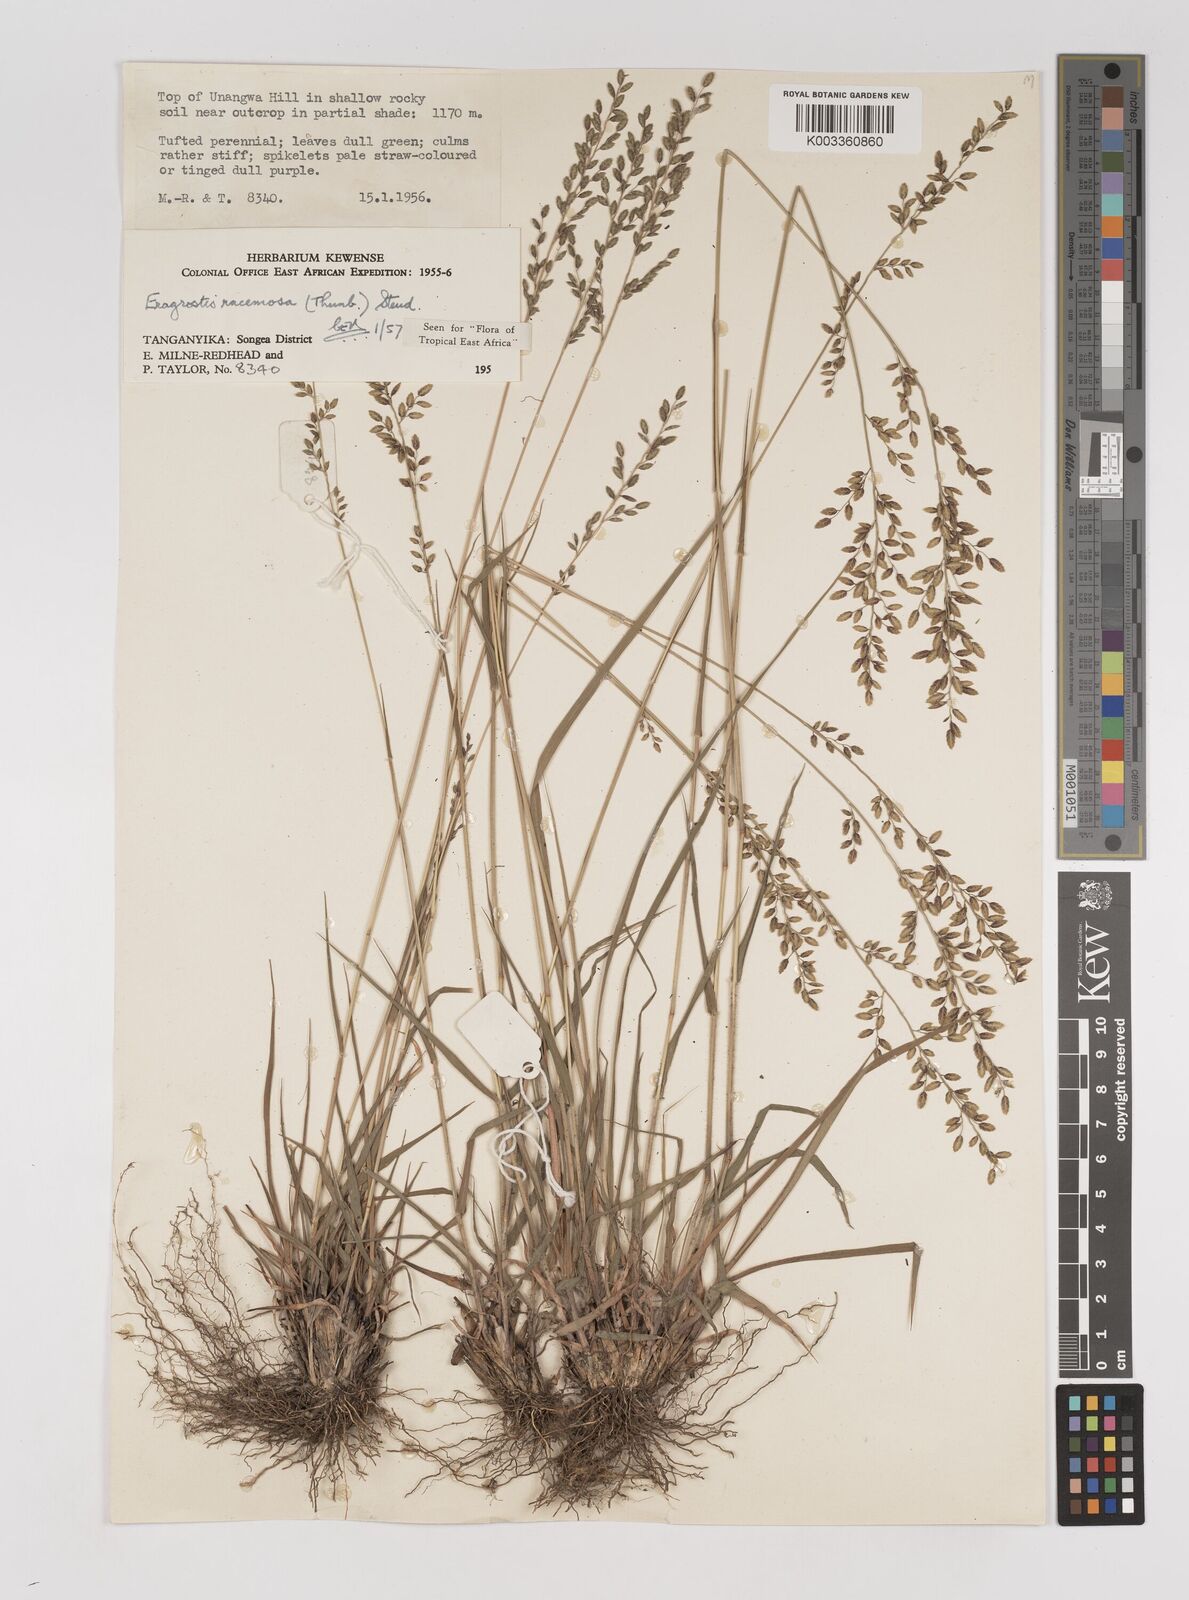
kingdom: Plantae
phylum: Tracheophyta
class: Liliopsida
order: Poales
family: Poaceae
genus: Eragrostis
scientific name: Eragrostis racemosa
